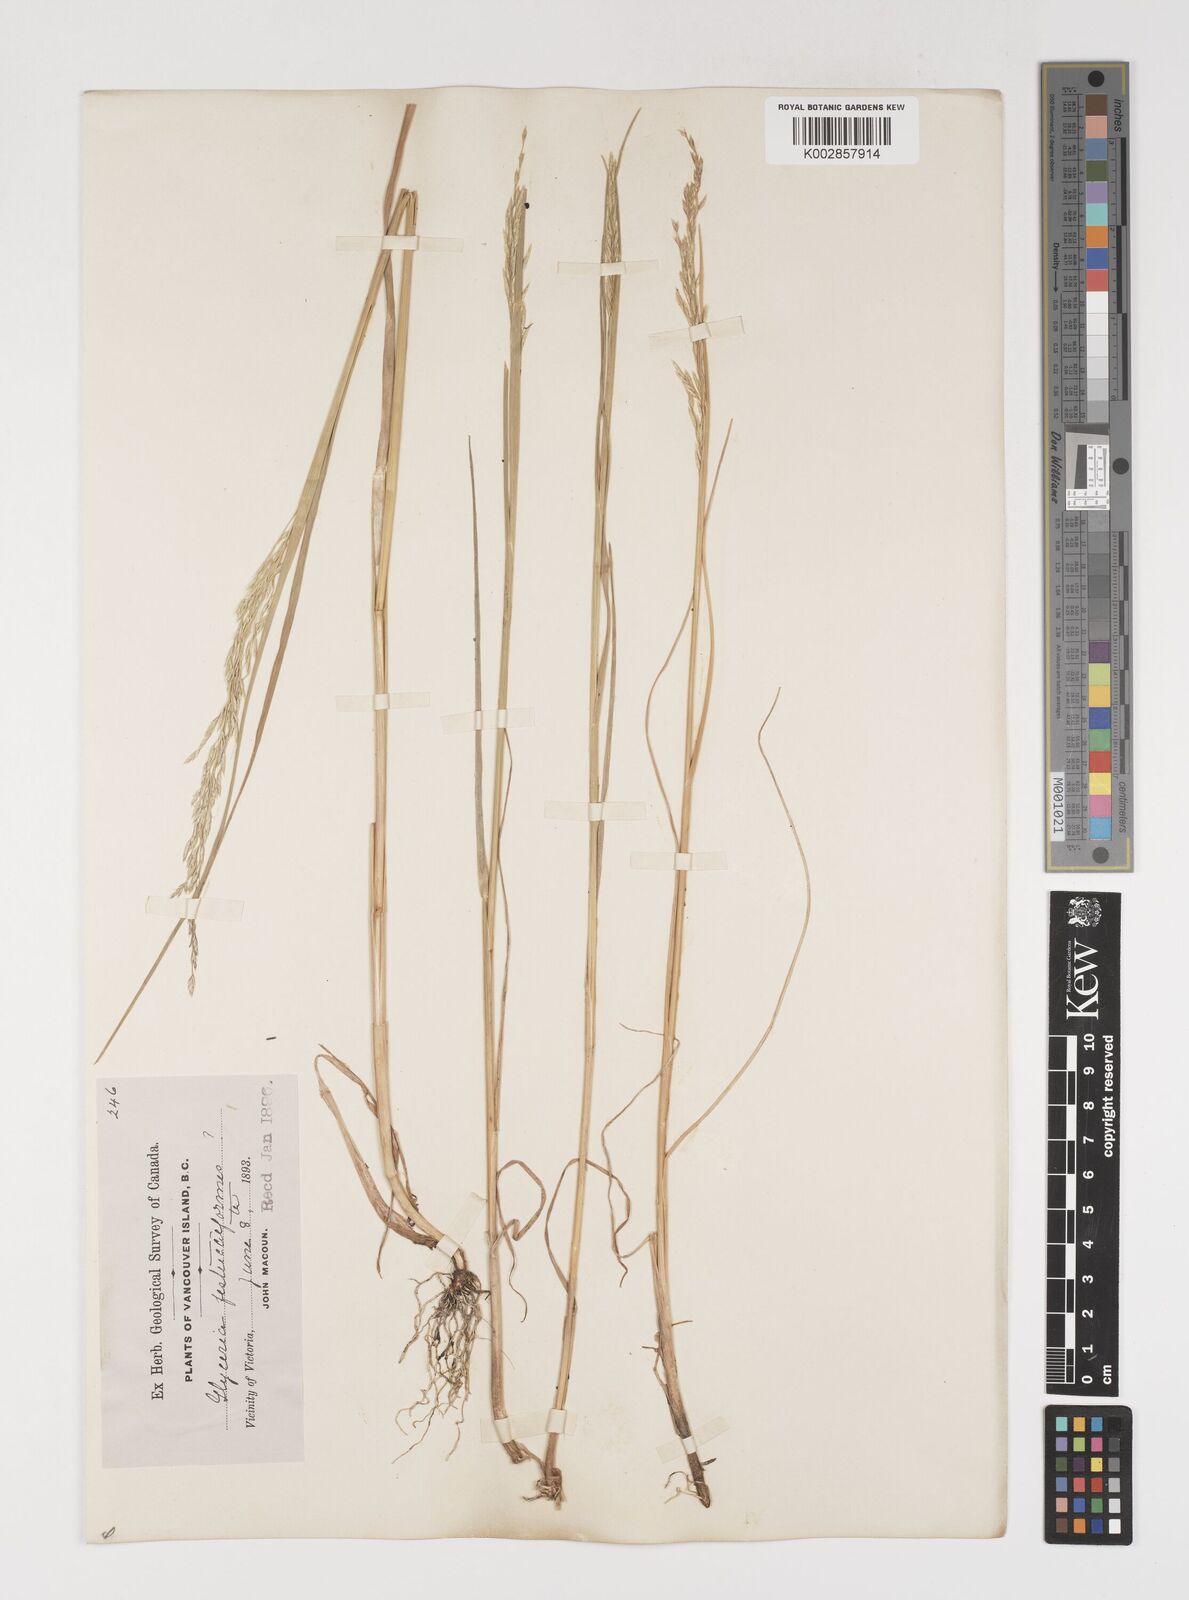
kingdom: Plantae
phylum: Tracheophyta
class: Liliopsida
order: Poales
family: Poaceae
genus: Puccinellia
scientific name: Puccinellia
